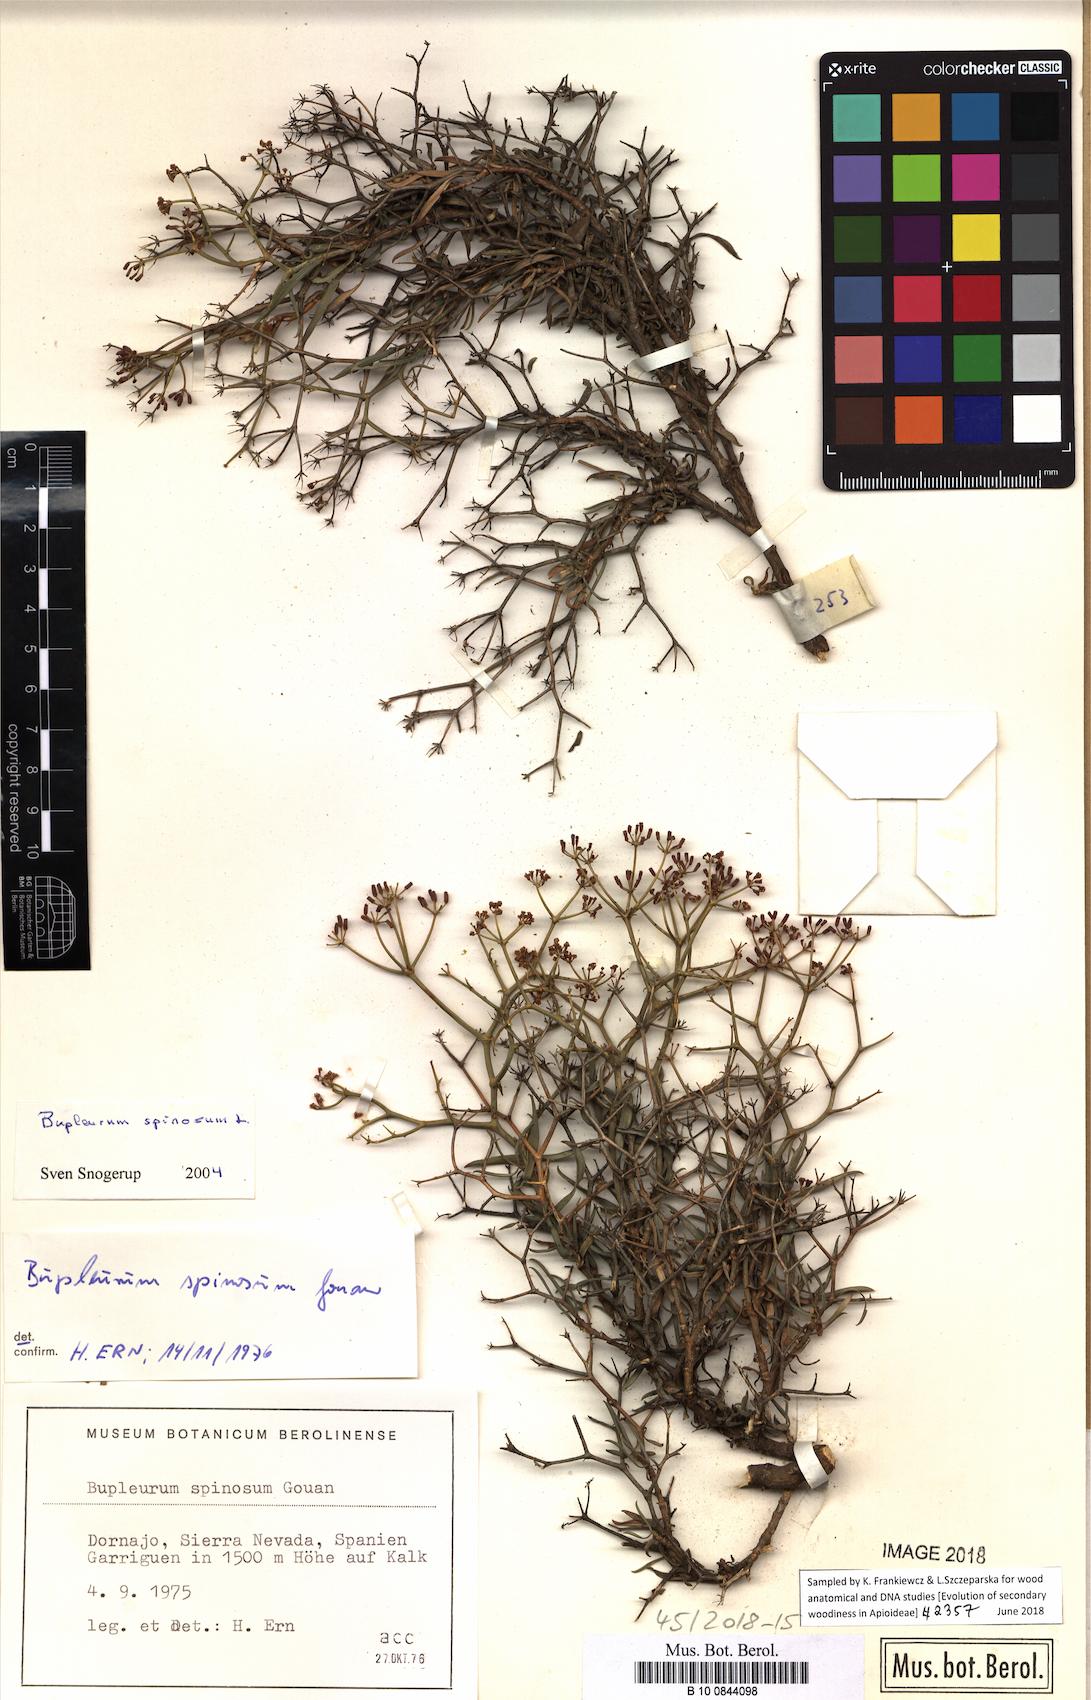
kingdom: Plantae
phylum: Tracheophyta
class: Magnoliopsida
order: Apiales
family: Apiaceae
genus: Bupleurum
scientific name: Bupleurum fruticescens
